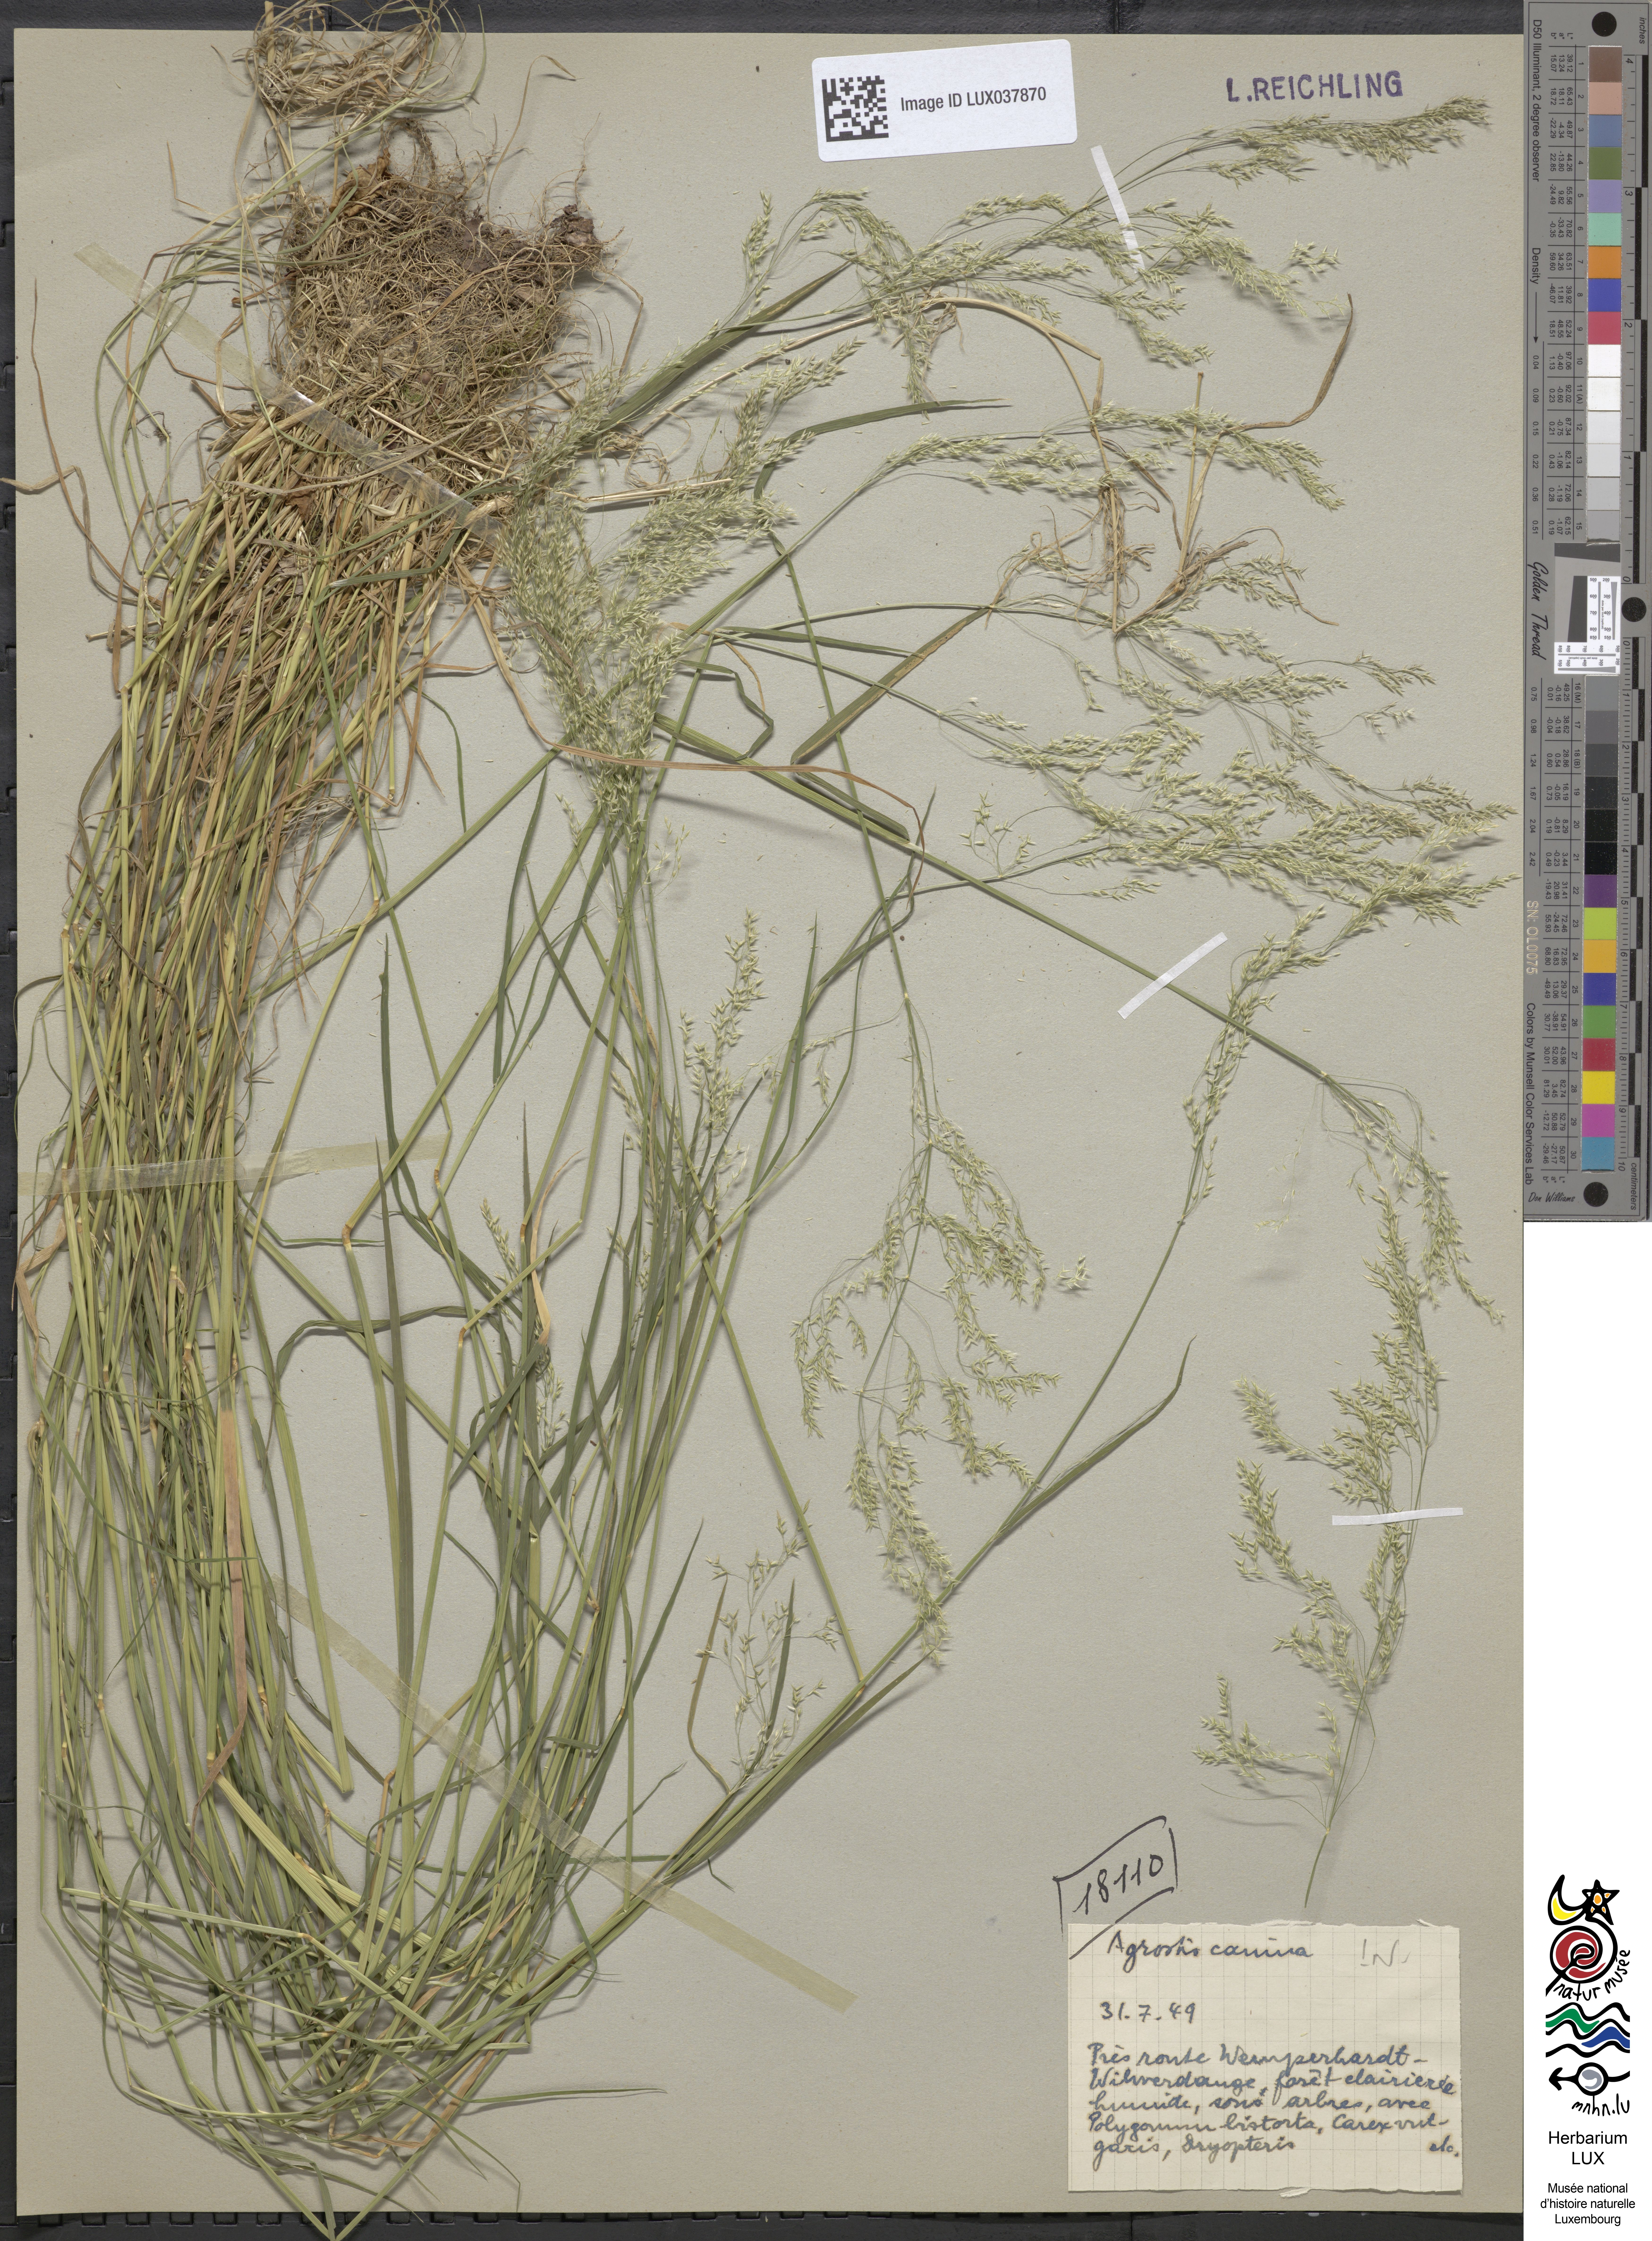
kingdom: Plantae
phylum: Tracheophyta
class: Liliopsida
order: Poales
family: Poaceae
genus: Agrostis
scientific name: Agrostis canina
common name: Velvet bent
